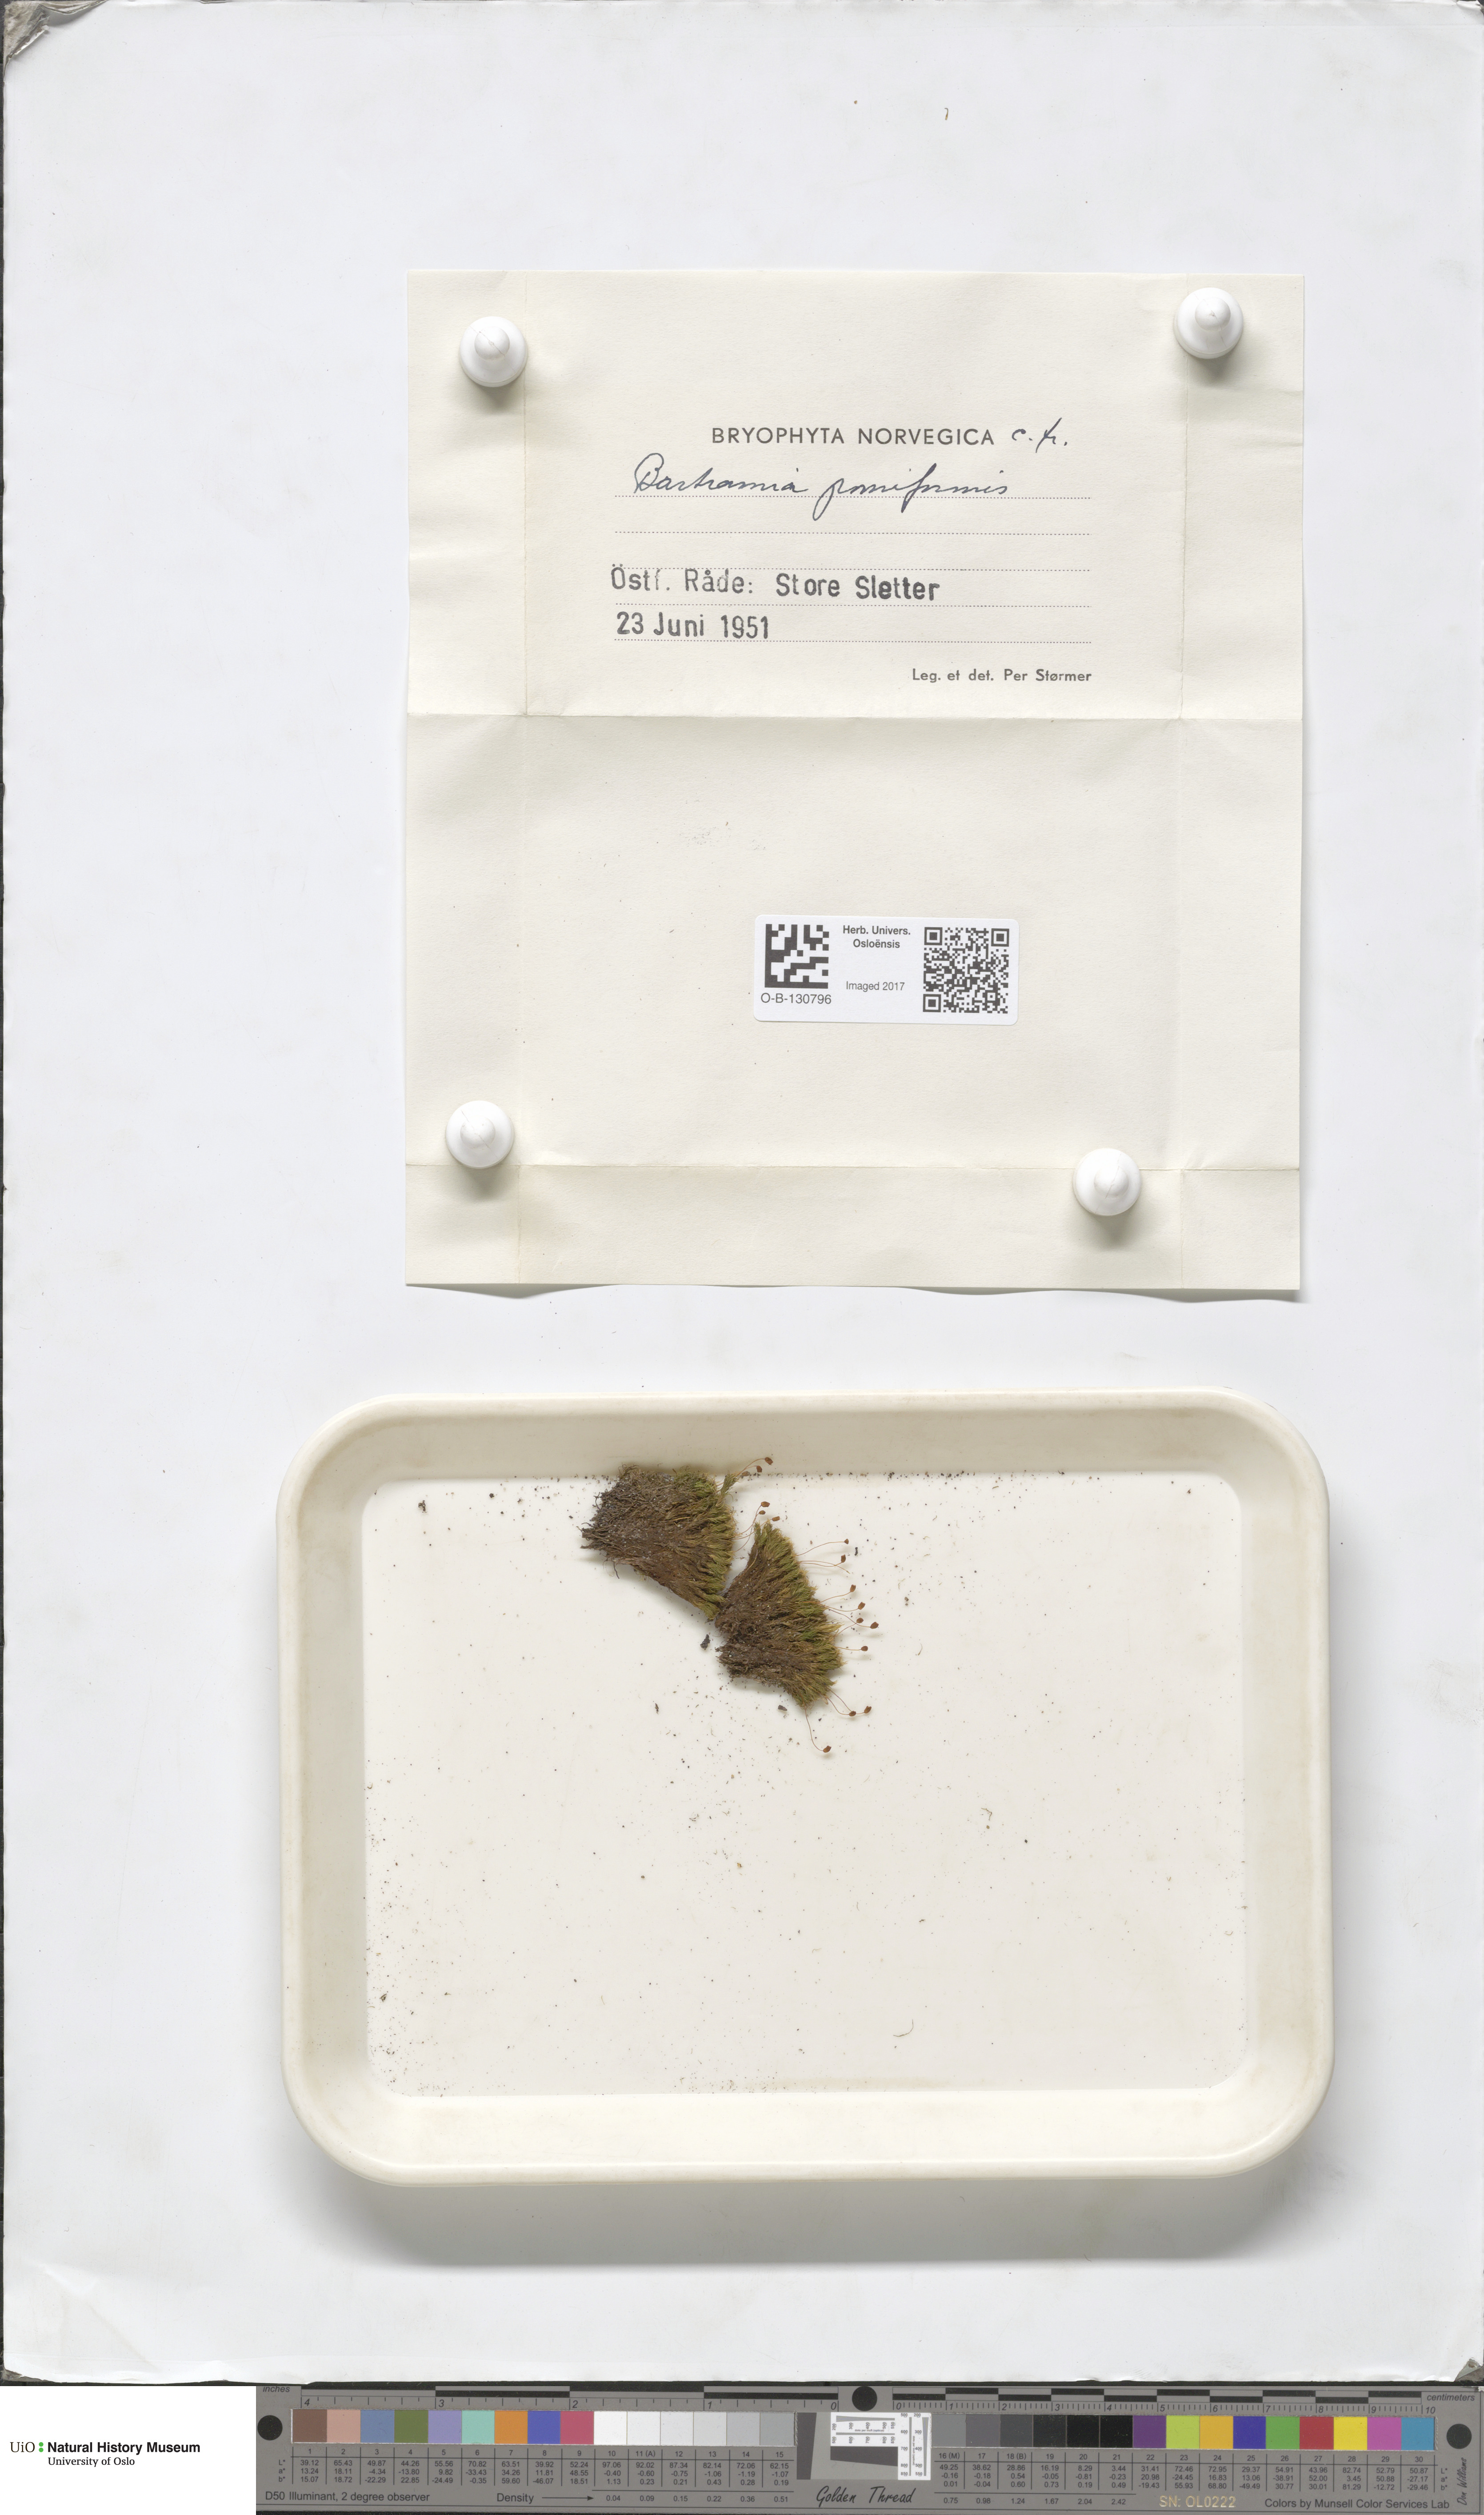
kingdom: Plantae
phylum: Bryophyta
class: Bryopsida
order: Bartramiales
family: Bartramiaceae
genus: Bartramia
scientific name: Bartramia pomiformis
